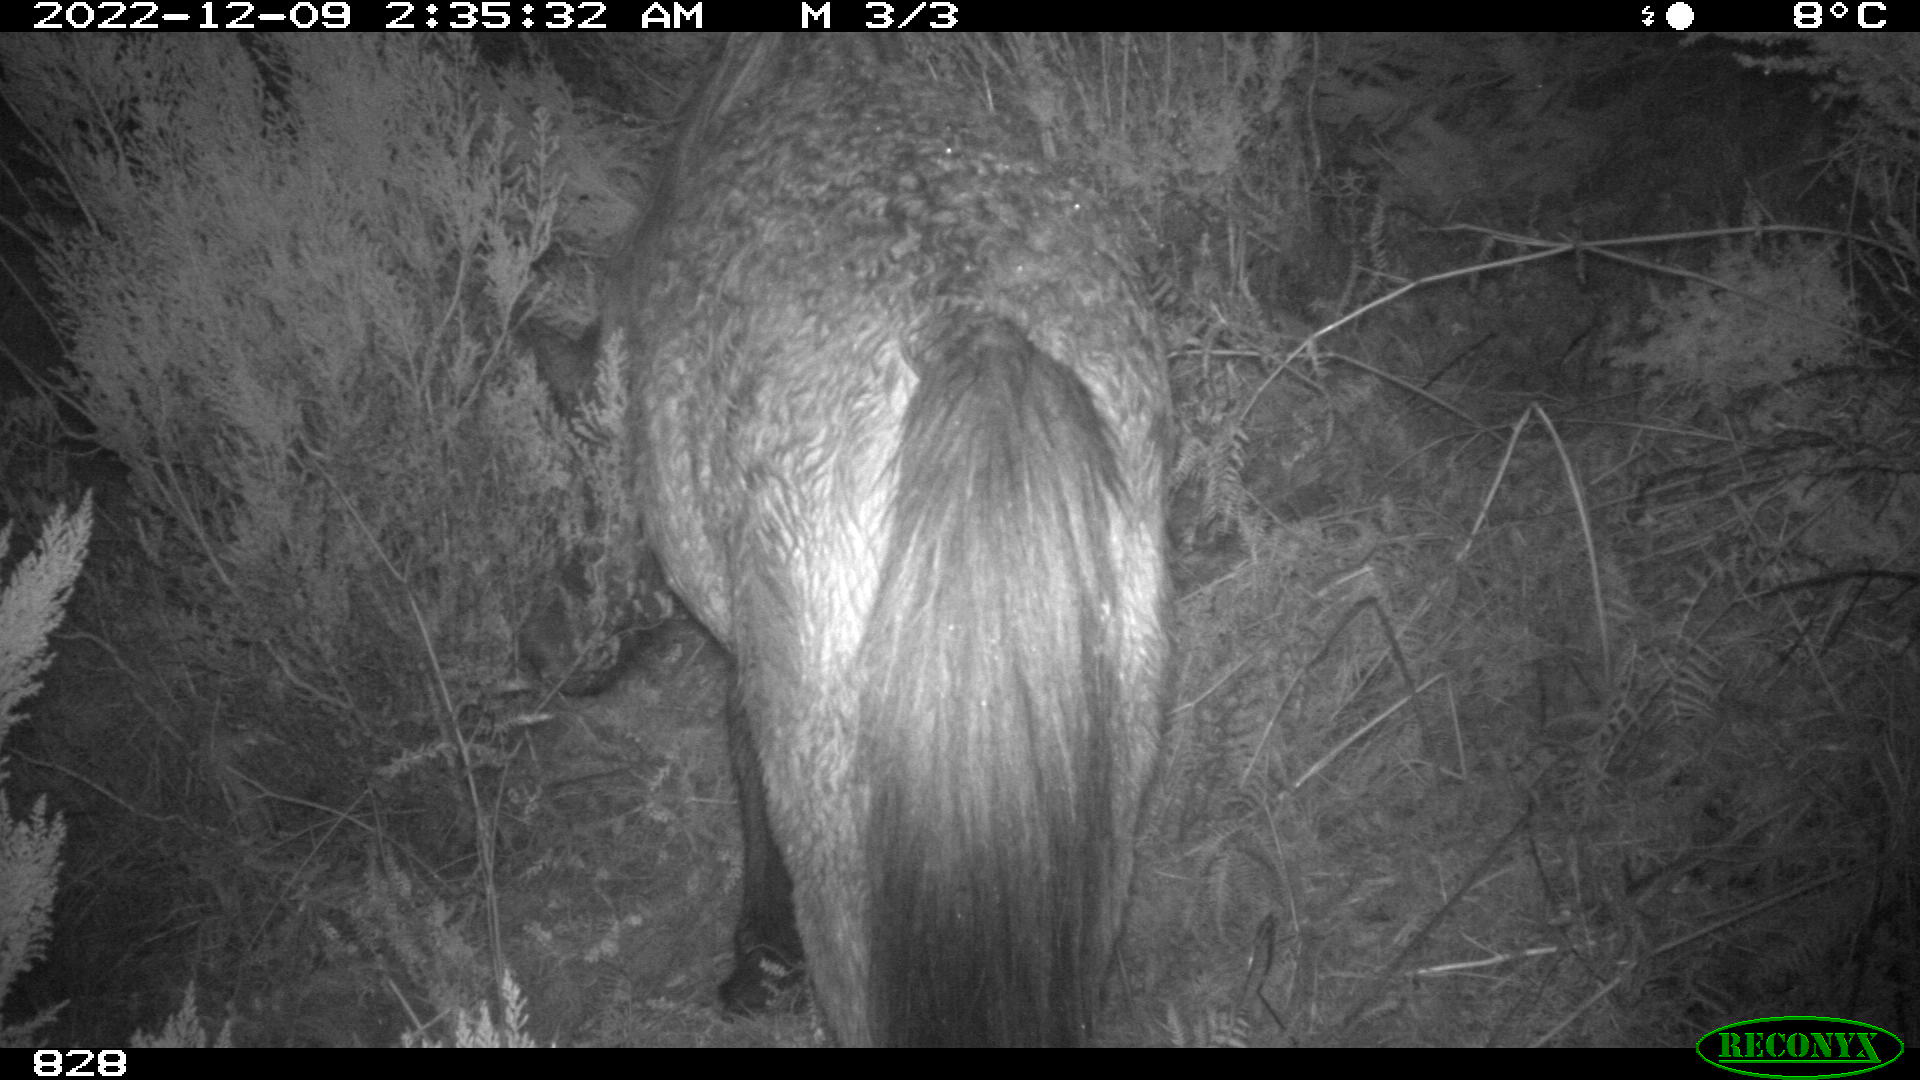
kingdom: Animalia
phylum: Chordata
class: Mammalia
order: Perissodactyla
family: Equidae
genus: Equus
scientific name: Equus caballus
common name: Horse
